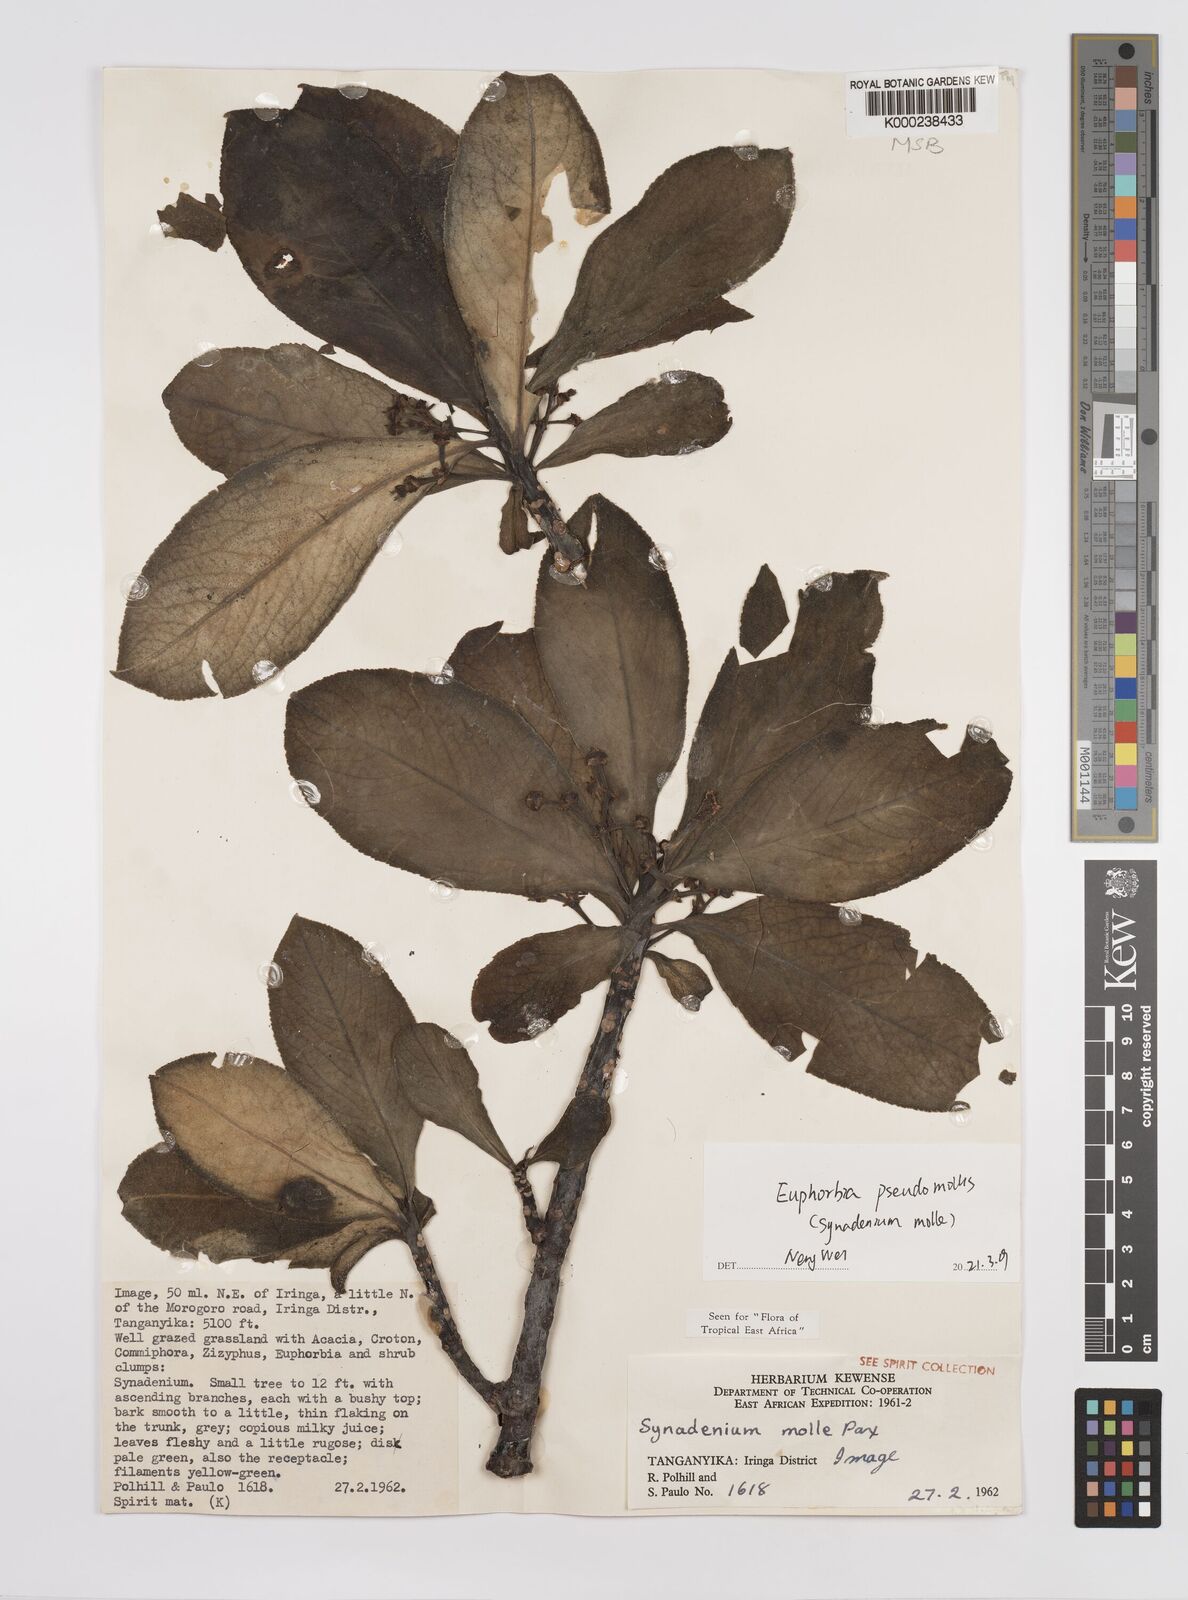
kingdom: Plantae
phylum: Tracheophyta
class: Magnoliopsida
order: Malpighiales
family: Euphorbiaceae
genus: Euphorbia
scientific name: Euphorbia pseudomollis
